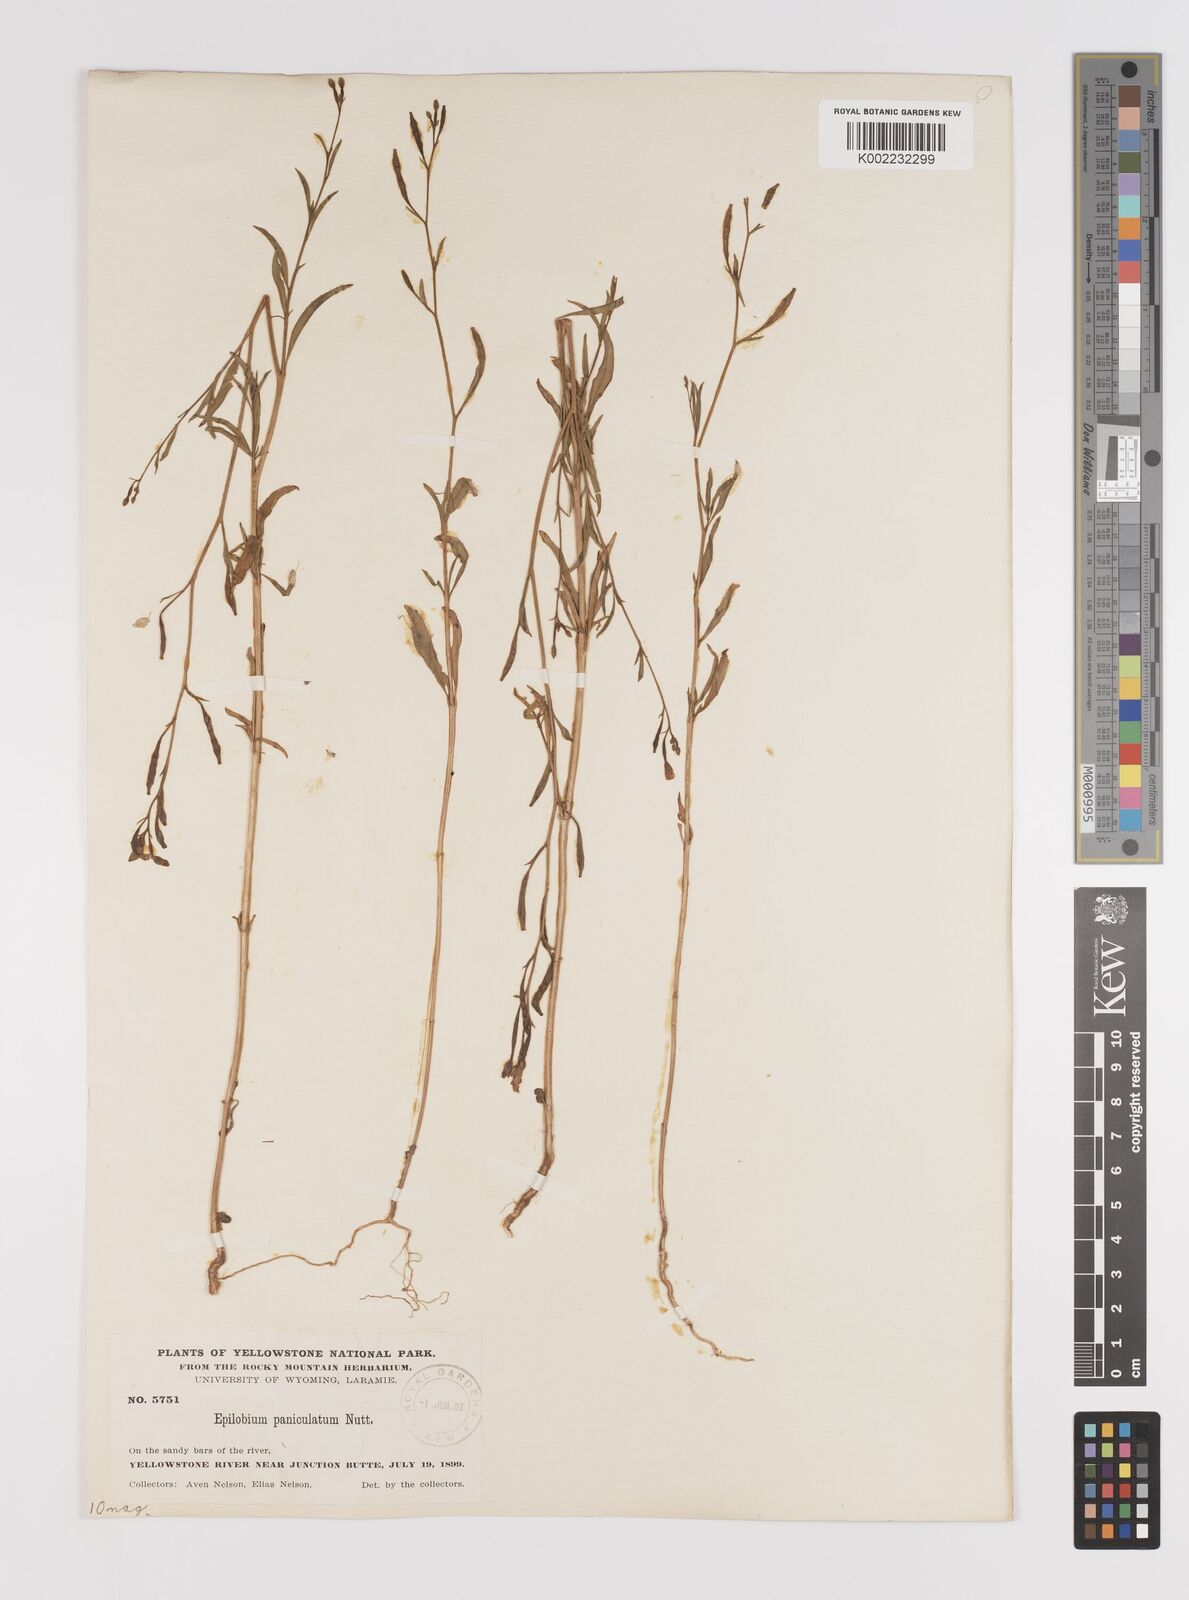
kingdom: Plantae
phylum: Tracheophyta
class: Magnoliopsida
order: Myrtales
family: Onagraceae
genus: Epilobium
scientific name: Epilobium
